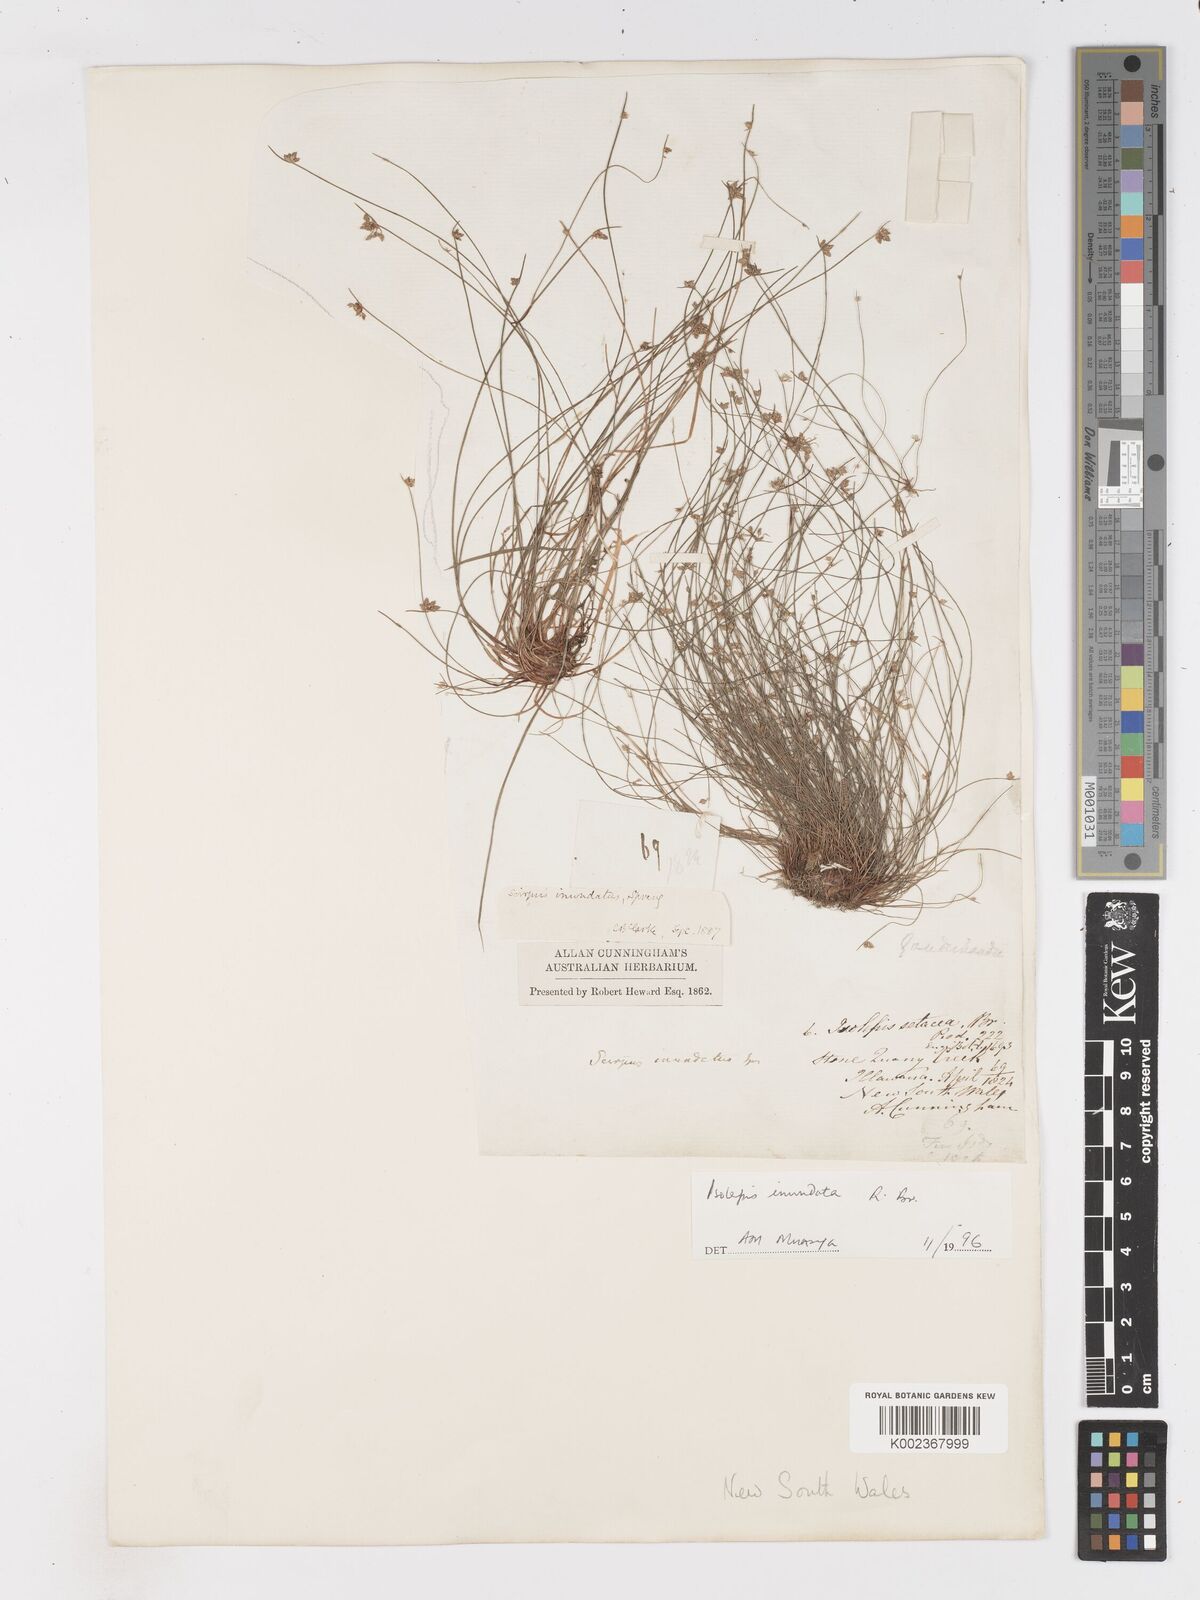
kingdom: Plantae
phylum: Tracheophyta
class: Liliopsida
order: Poales
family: Cyperaceae
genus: Isolepis
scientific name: Isolepis inundata
